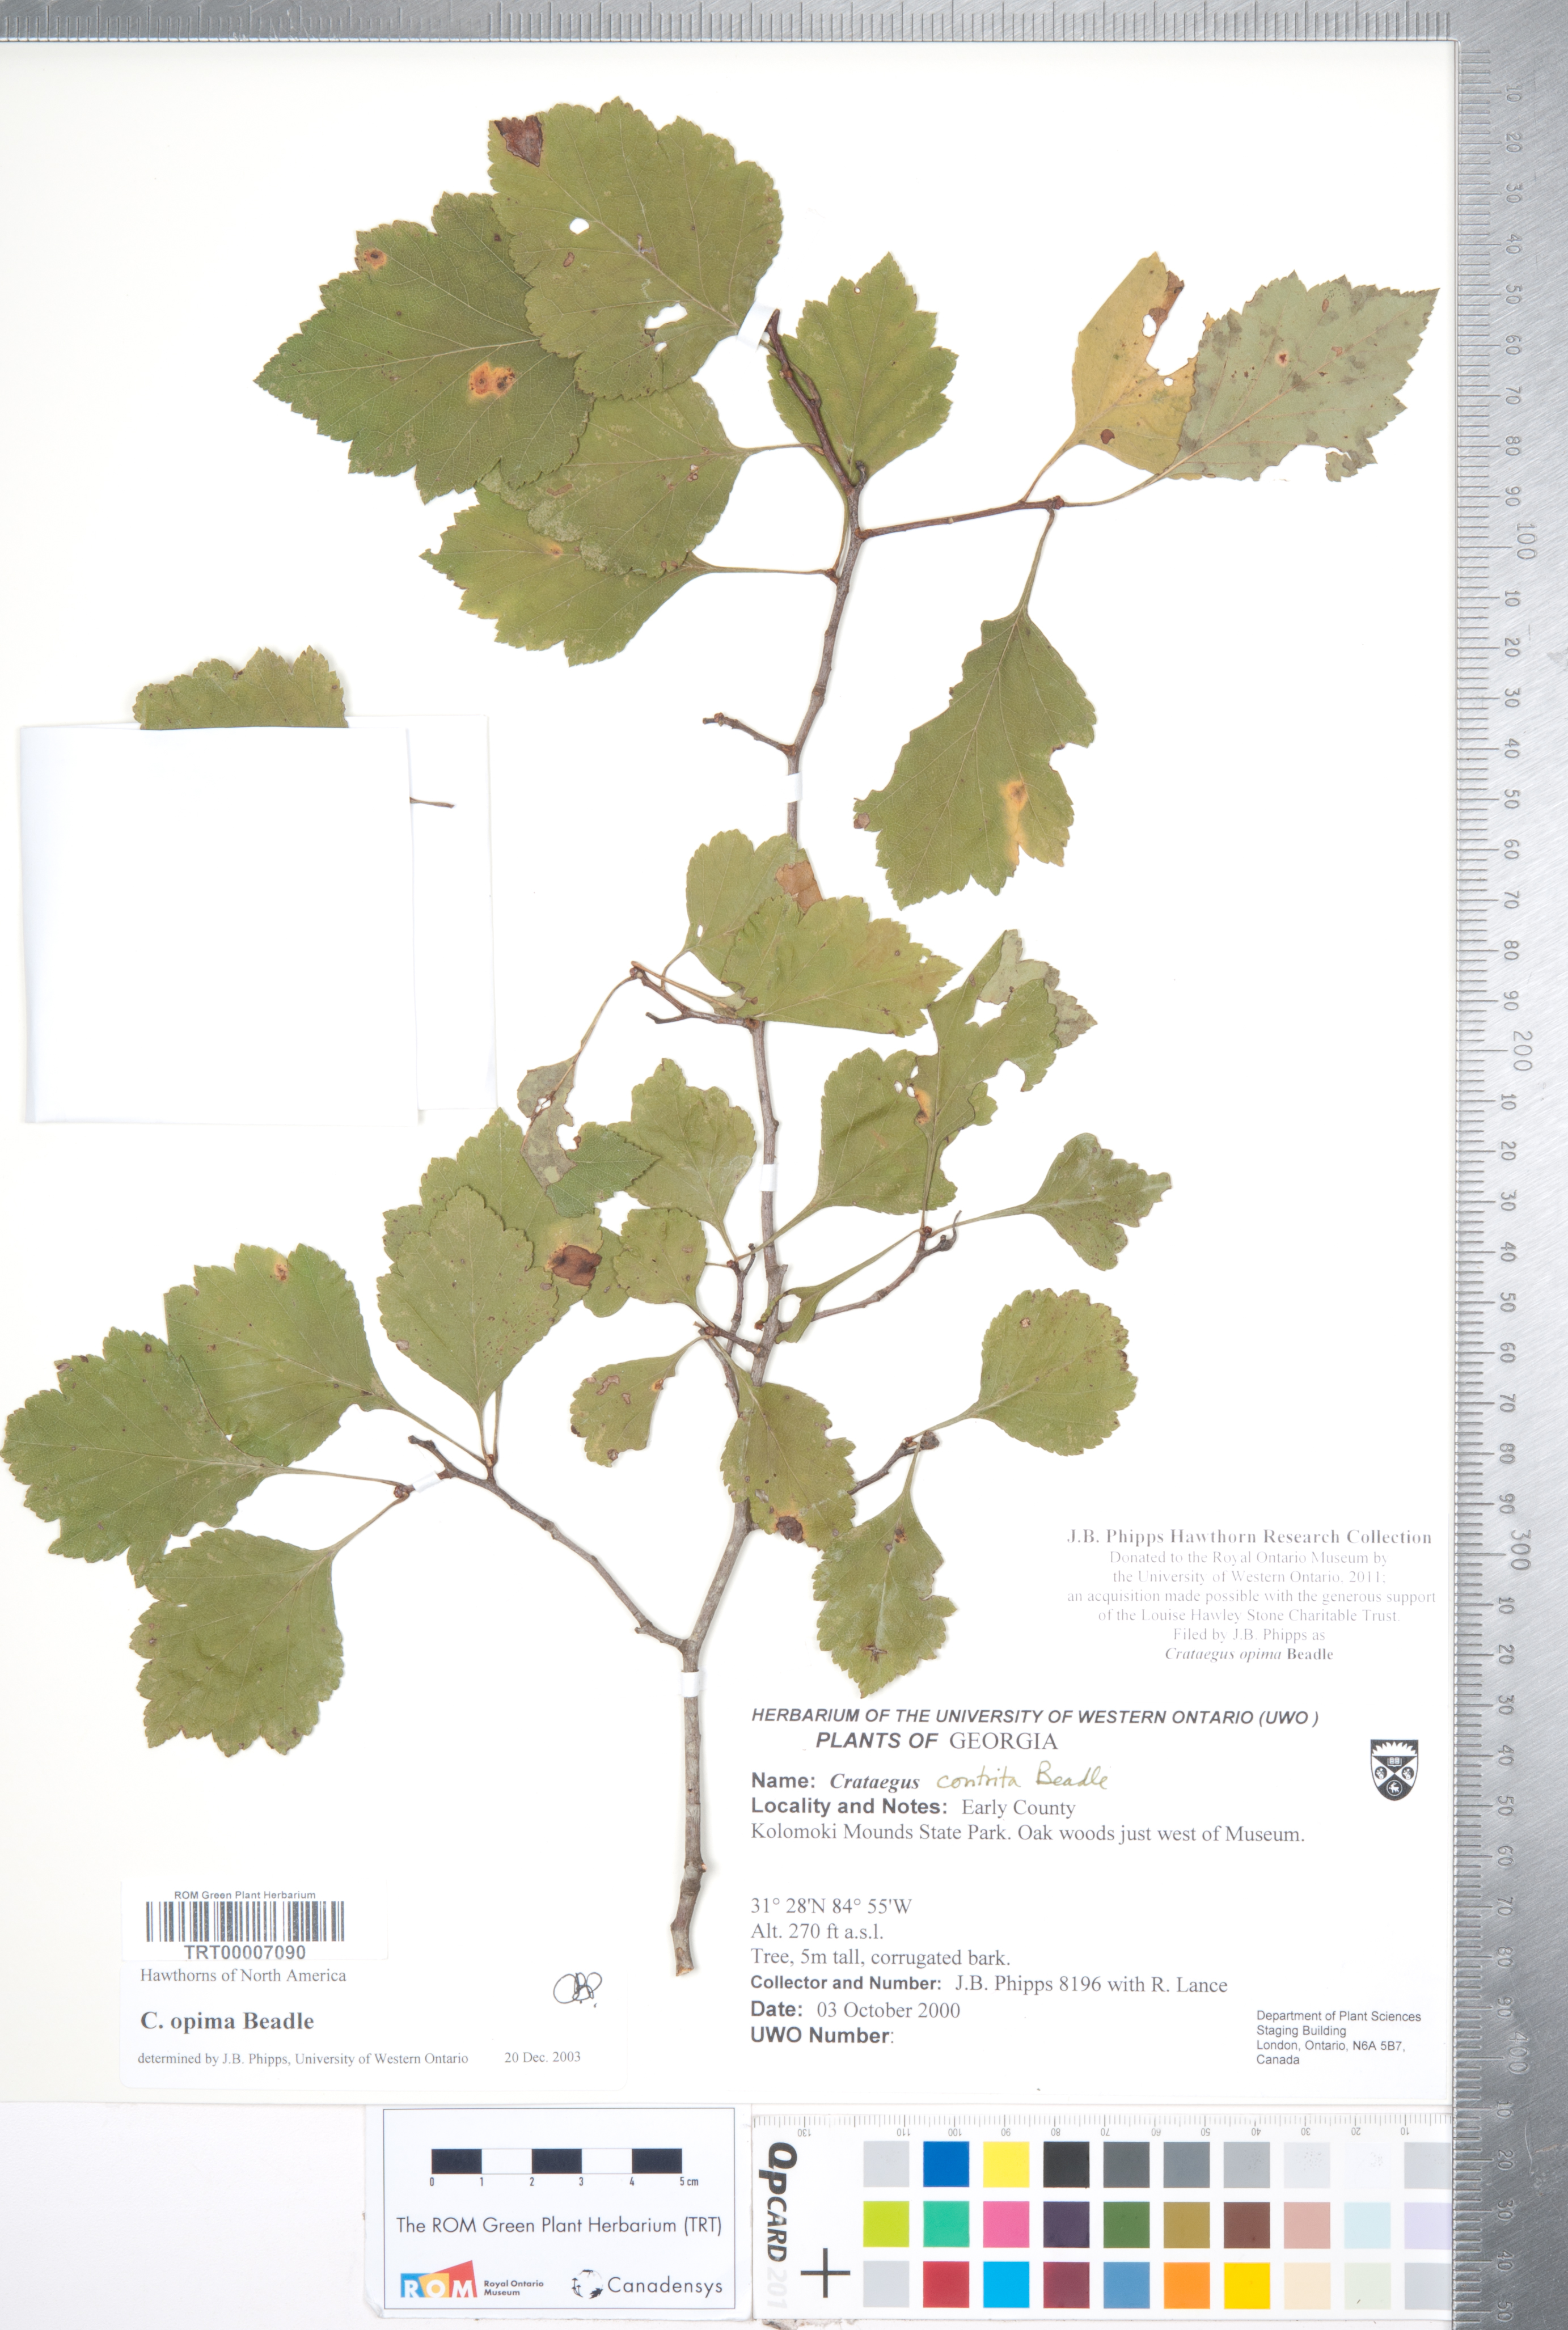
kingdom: Plantae
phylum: Tracheophyta
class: Magnoliopsida
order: Rosales
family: Rosaceae
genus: Crataegus
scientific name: Crataegus pulcherrima
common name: Beautiful hawthorn
